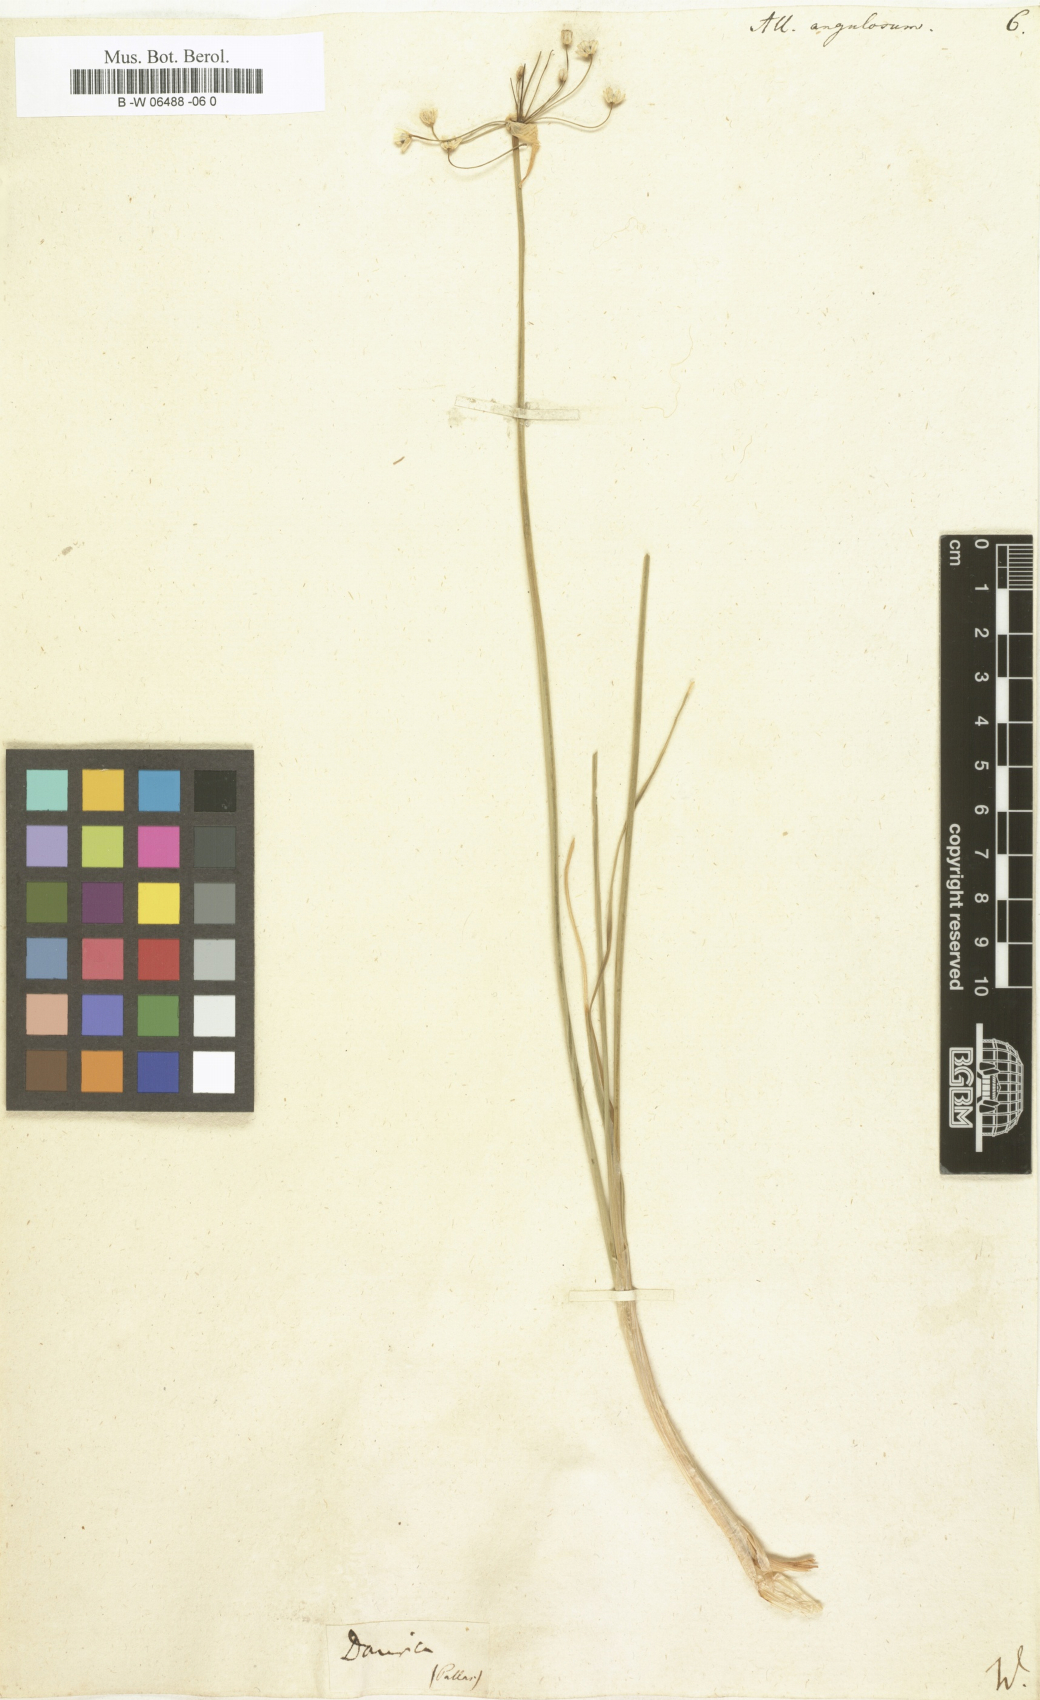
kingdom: Plantae
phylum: Tracheophyta
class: Liliopsida
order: Asparagales
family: Amaryllidaceae
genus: Allium
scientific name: Allium angulosum
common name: Mouse garlic
